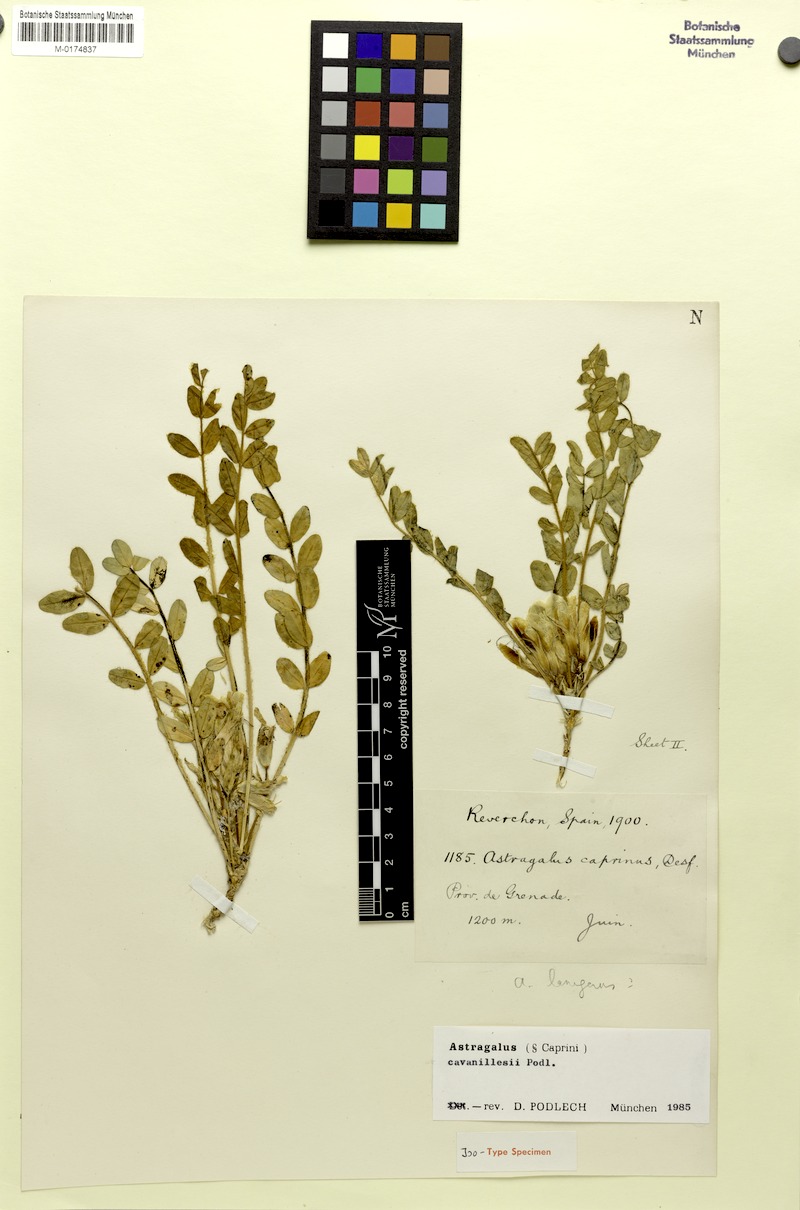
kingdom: Plantae
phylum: Tracheophyta
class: Magnoliopsida
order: Fabales
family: Fabaceae
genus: Astragalus
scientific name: Astragalus cavanillesii
